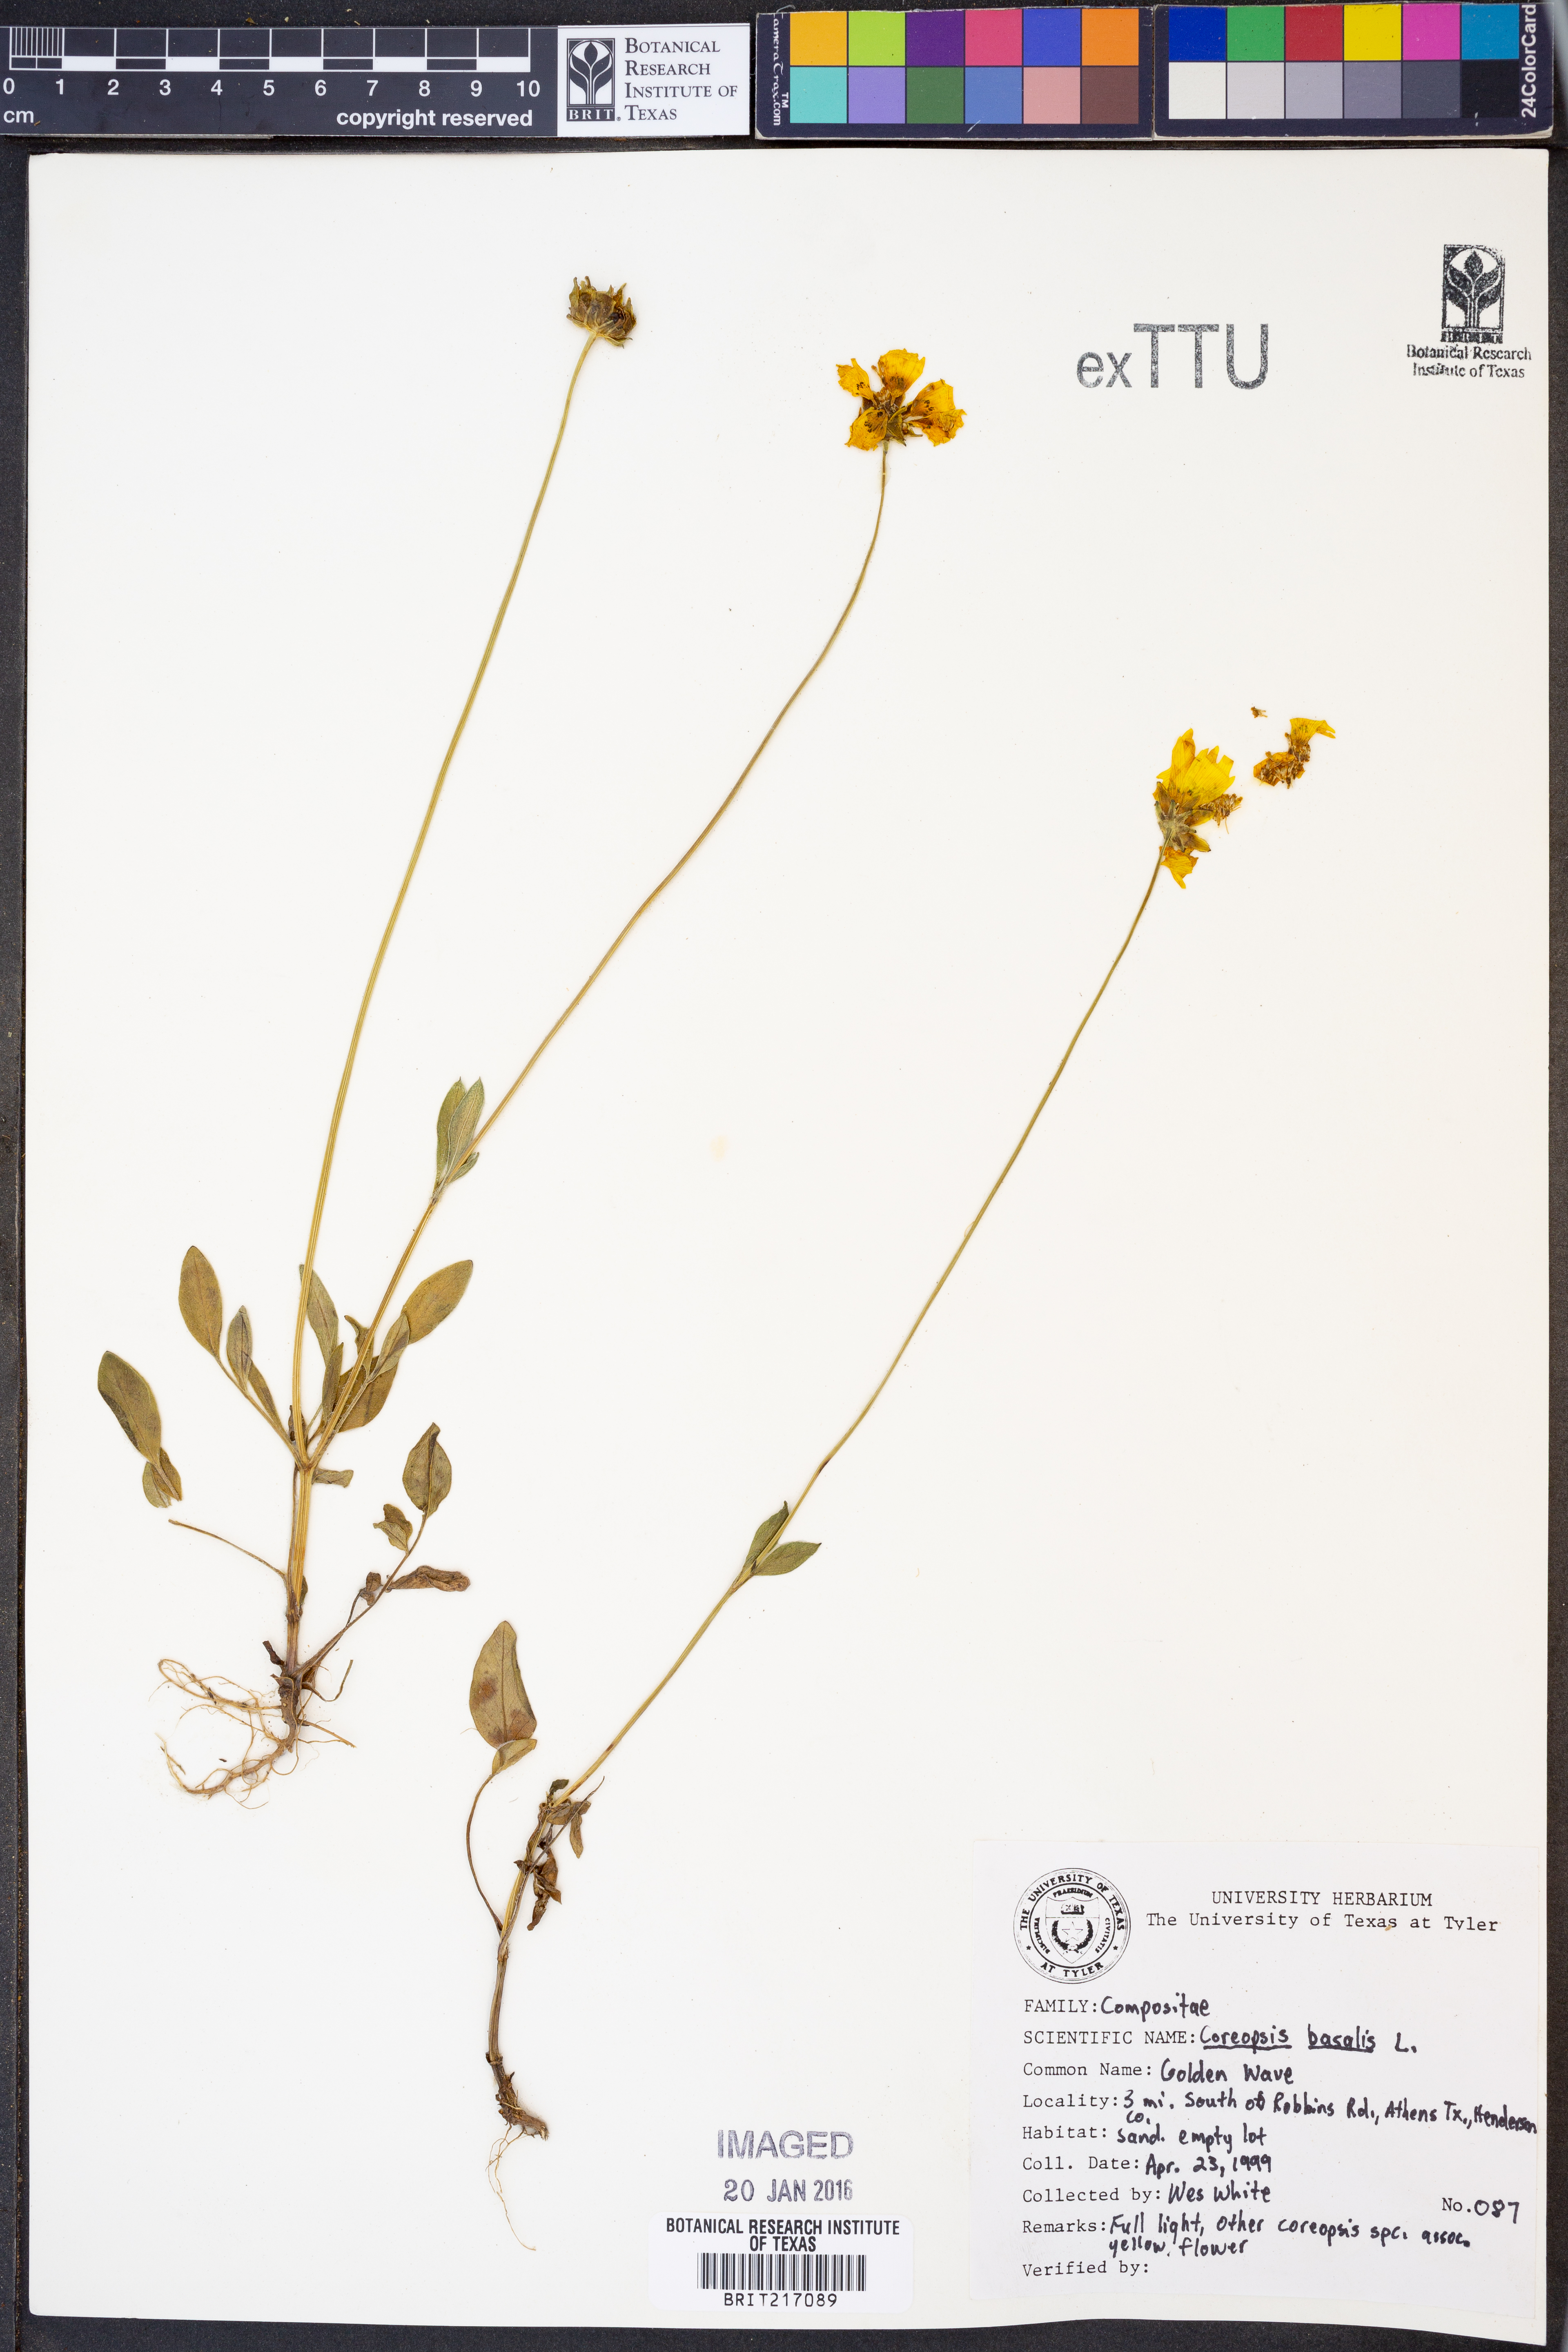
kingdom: Plantae
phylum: Tracheophyta
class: Magnoliopsida
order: Asterales
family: Asteraceae
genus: Coreopsis
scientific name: Coreopsis basalis
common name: Golden-mane coreopsis
